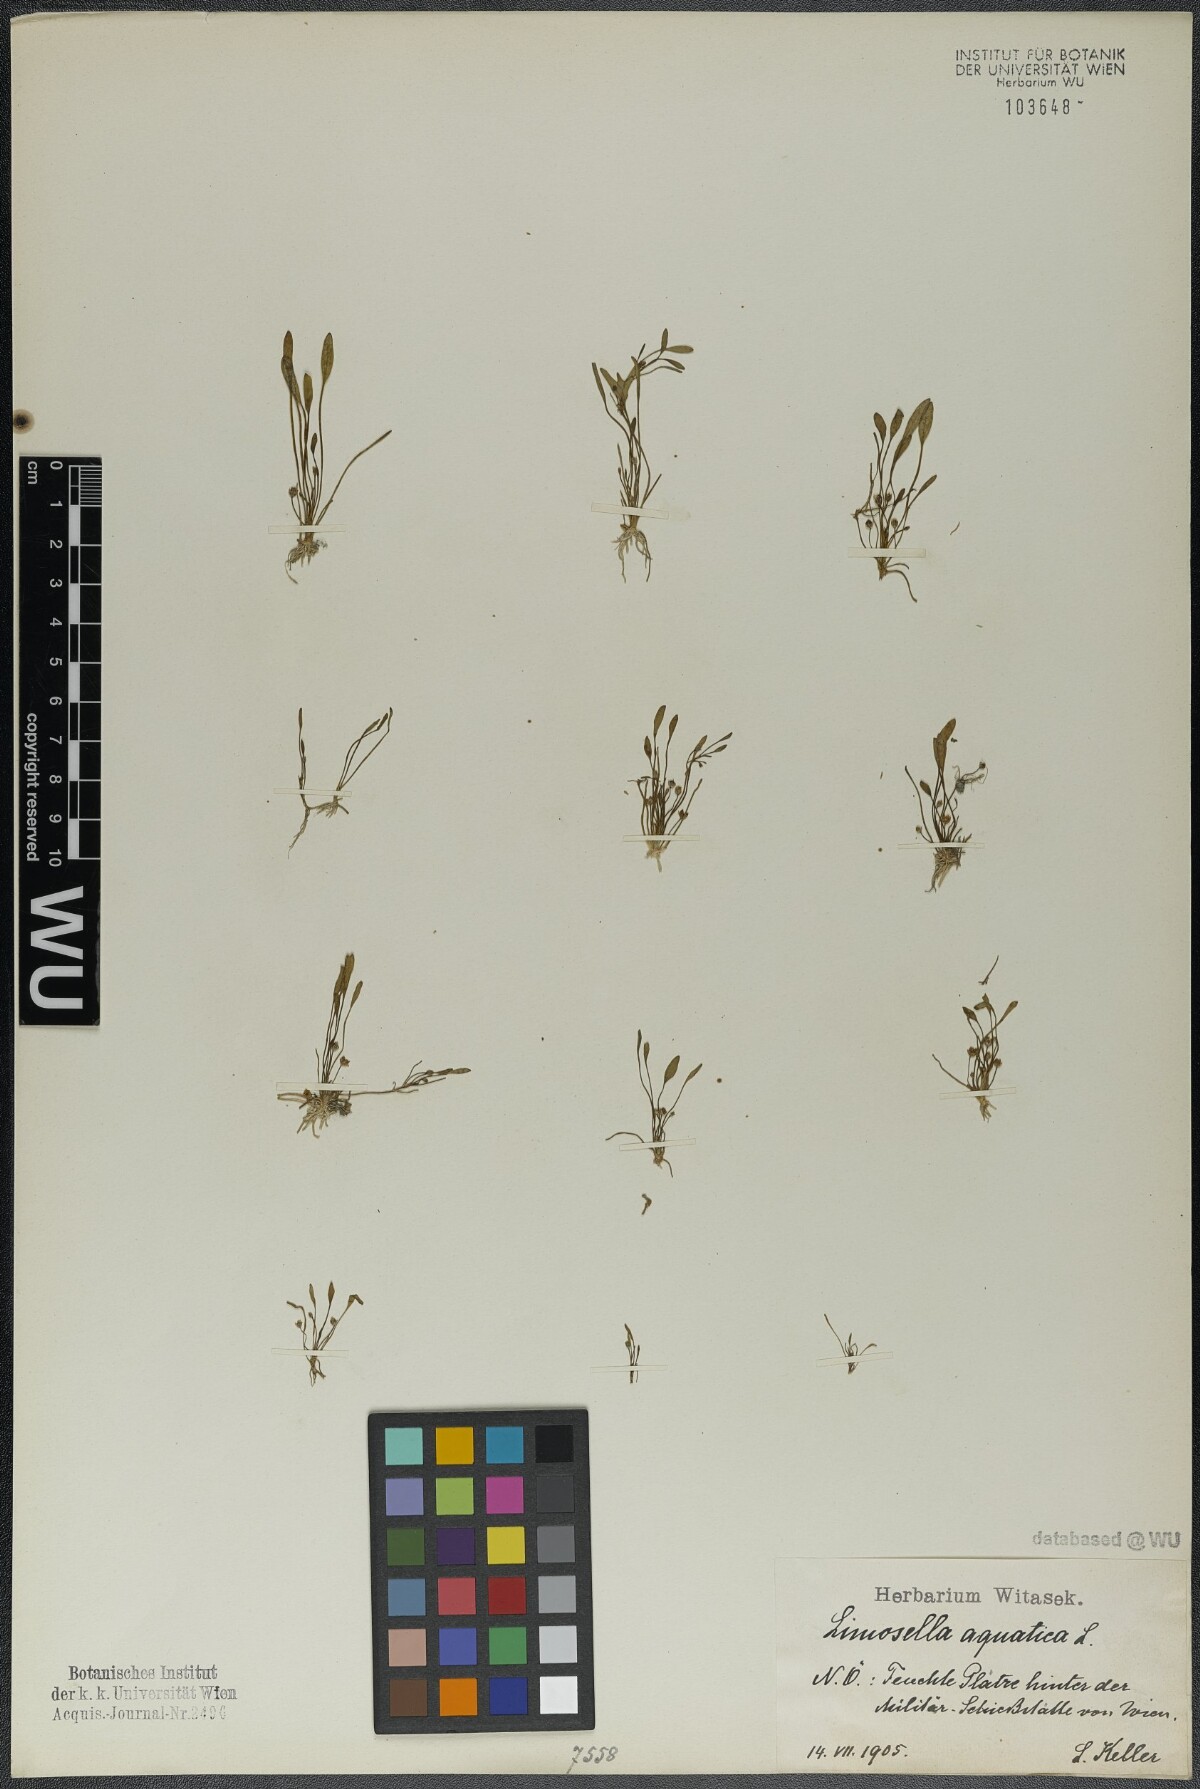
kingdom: Plantae
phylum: Tracheophyta
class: Magnoliopsida
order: Lamiales
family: Scrophulariaceae
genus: Limosella
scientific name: Limosella aquatica
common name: Mudwort
